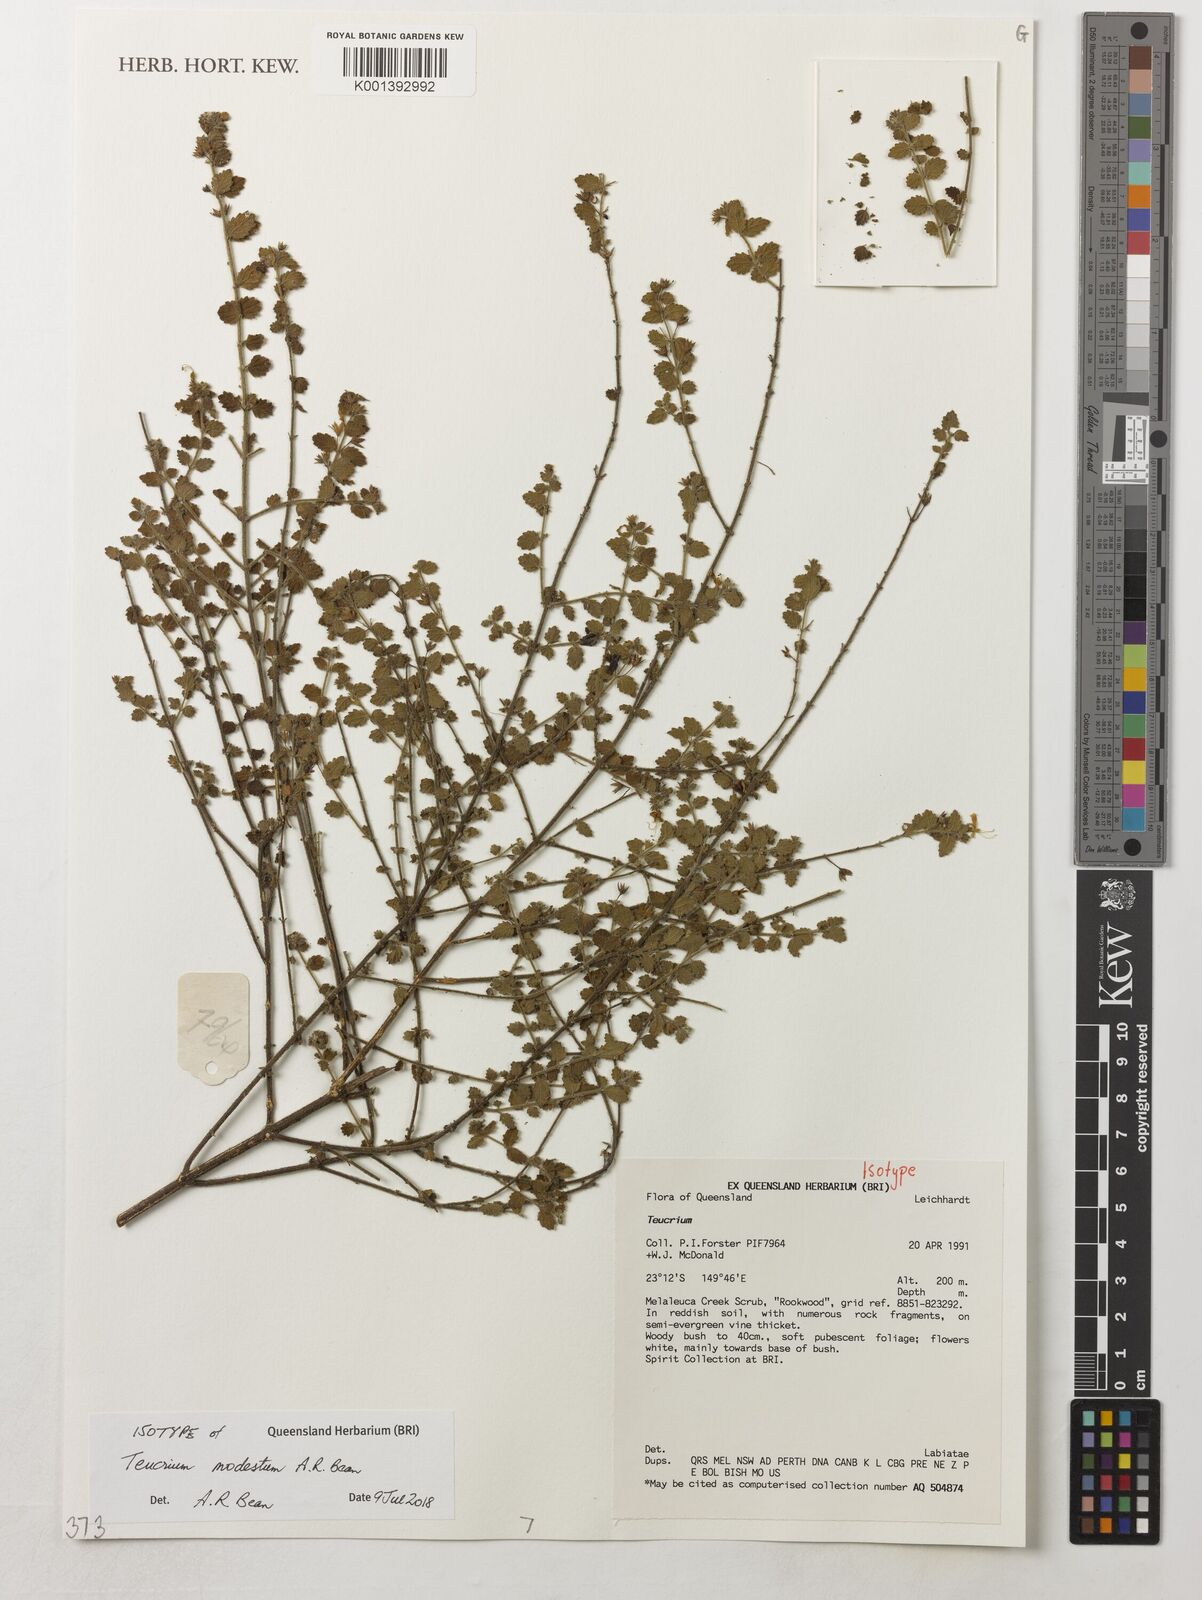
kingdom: Plantae
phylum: Tracheophyta
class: Magnoliopsida
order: Lamiales
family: Lamiaceae
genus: Teucrium
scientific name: Teucrium modestum
